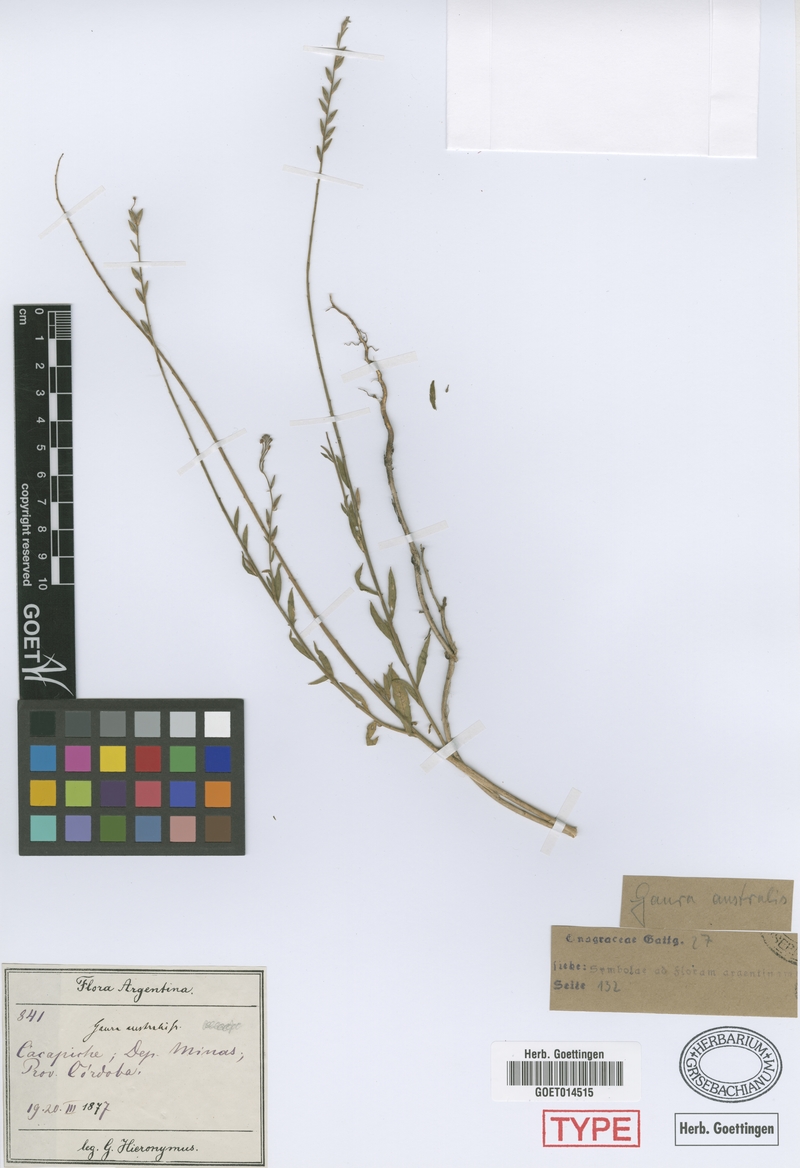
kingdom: Plantae
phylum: Tracheophyta
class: Magnoliopsida
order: Myrtales
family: Onagraceae
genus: Oenothera
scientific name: Oenothera curtiflora
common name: Velvetweed
